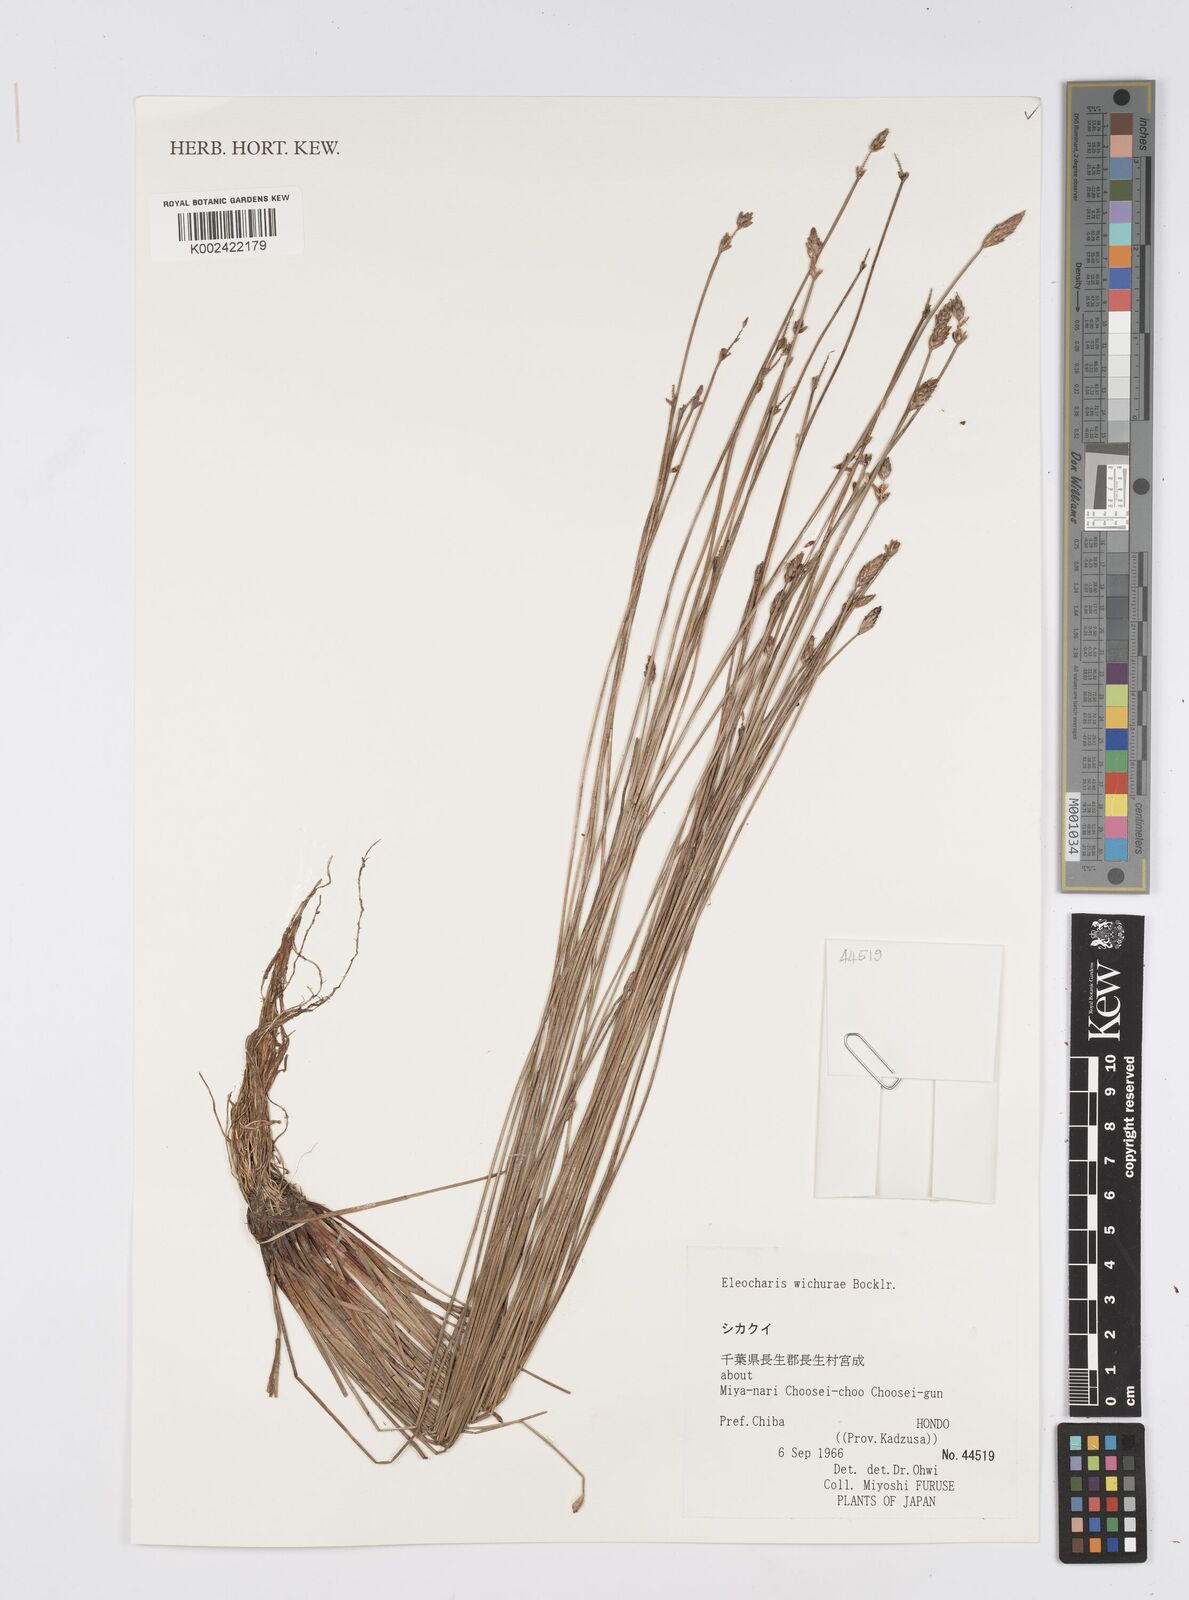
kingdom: Plantae
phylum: Tracheophyta
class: Liliopsida
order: Poales
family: Cyperaceae
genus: Eleocharis
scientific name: Eleocharis tetraquetra
